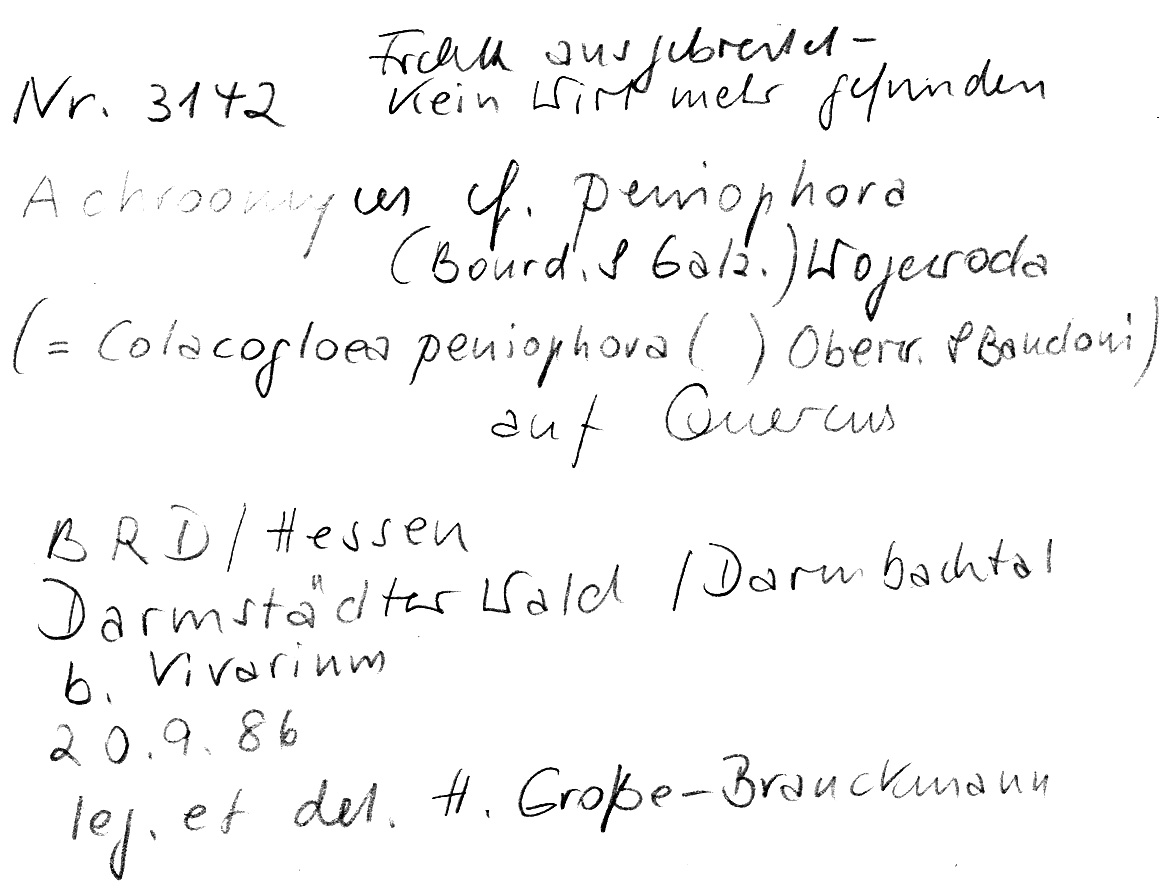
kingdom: Fungi
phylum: Basidiomycota
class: Microbotryomycetes
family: Colacogloeaceae
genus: Colacogloea
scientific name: Colacogloea peniophorae
